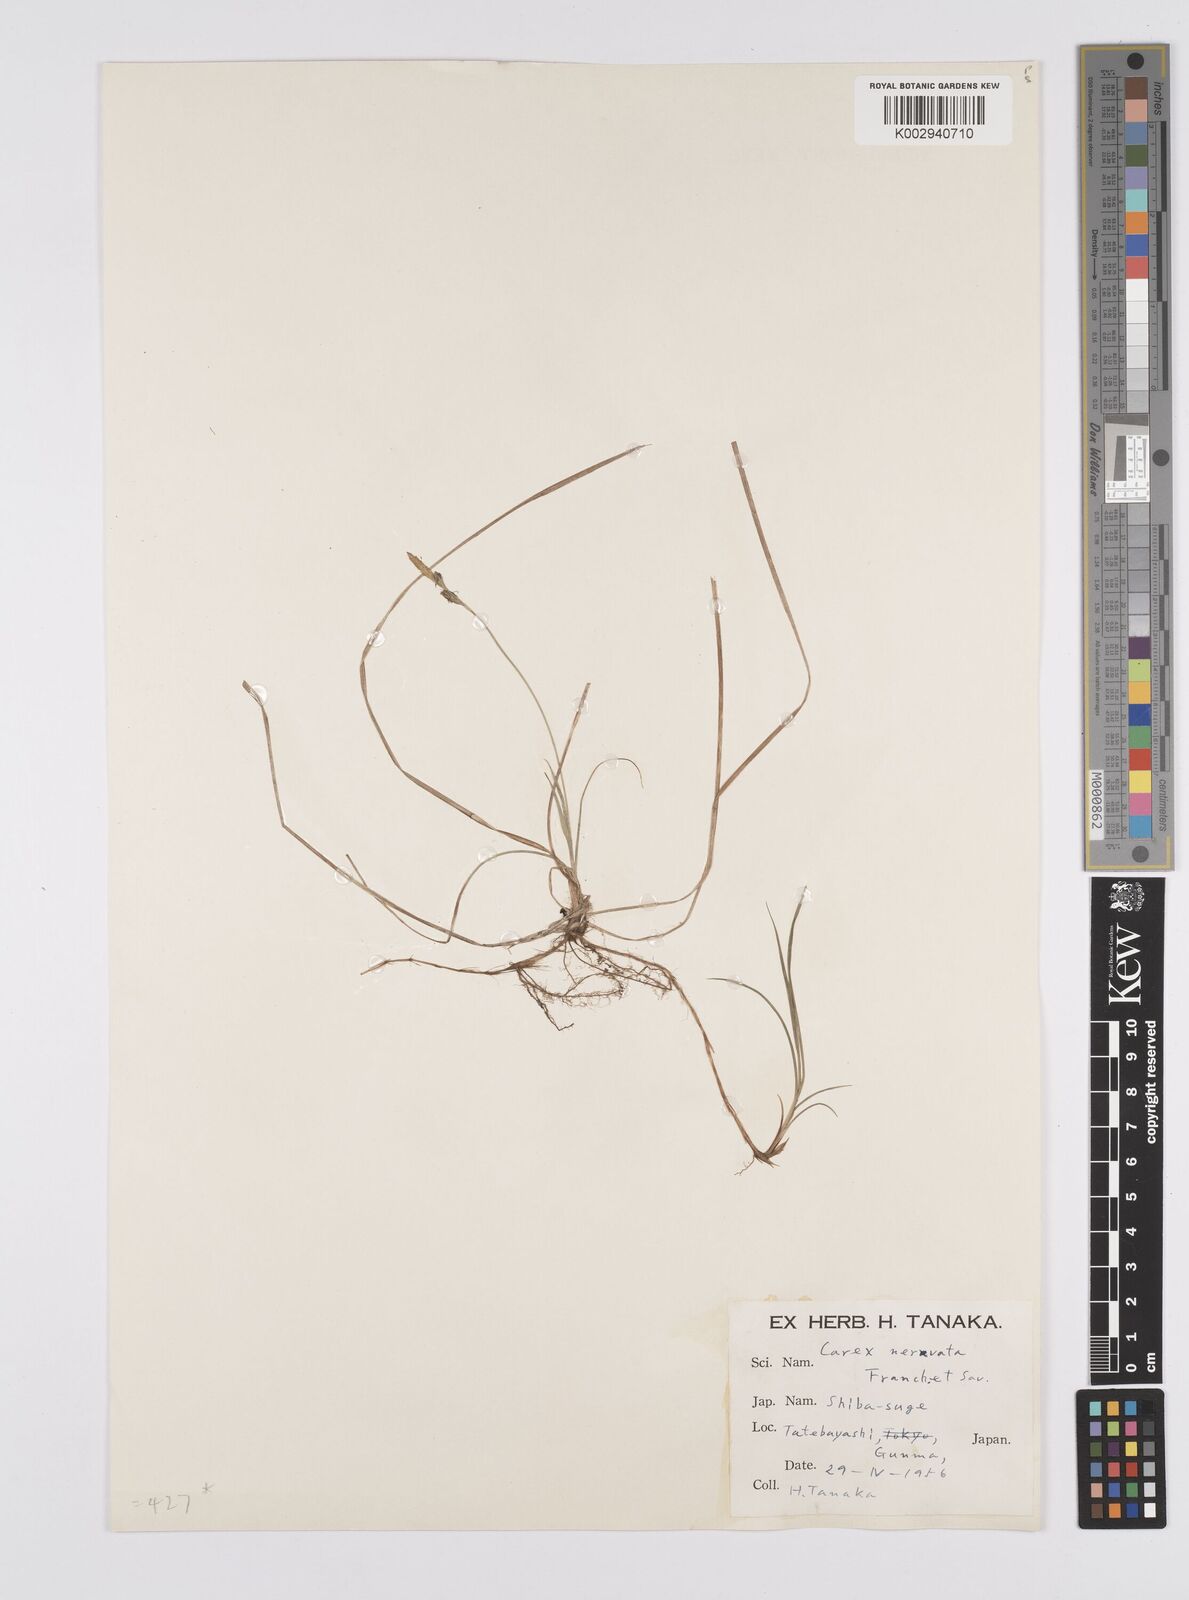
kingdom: Plantae
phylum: Tracheophyta
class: Liliopsida
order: Poales
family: Cyperaceae
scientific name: Cyperaceae
